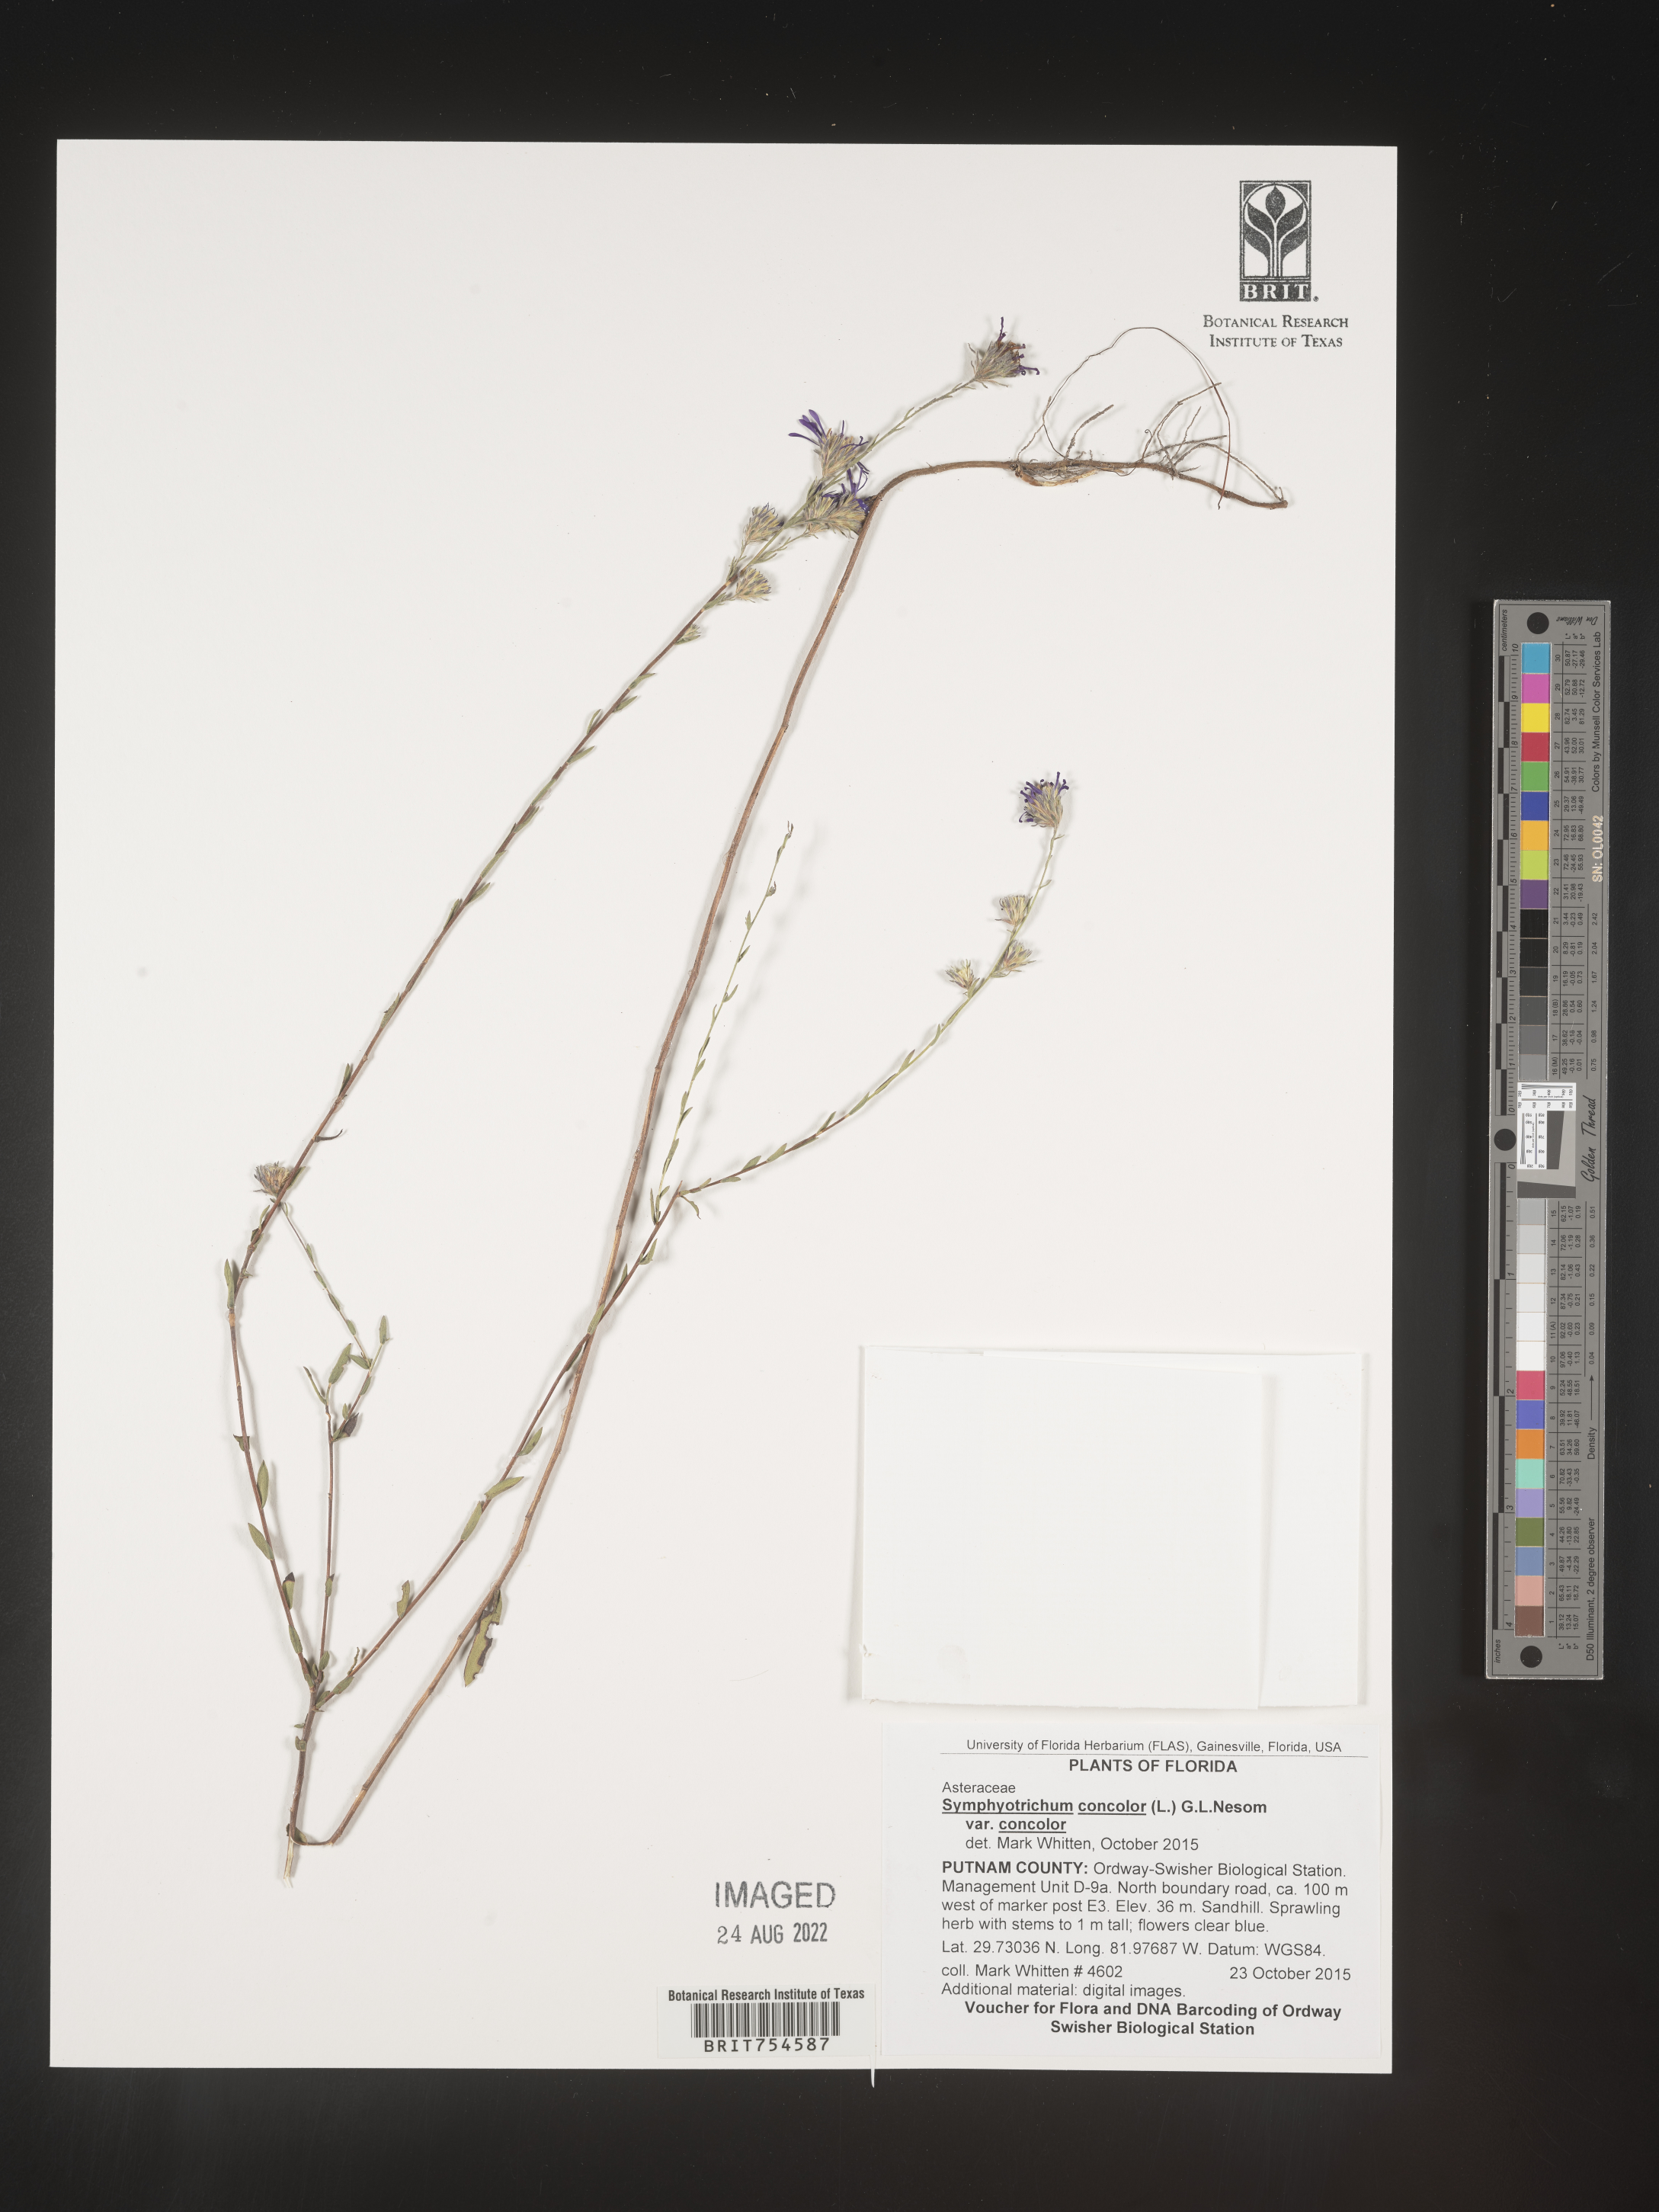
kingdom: Plantae
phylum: Tracheophyta
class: Magnoliopsida
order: Asterales
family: Asteraceae
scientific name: Asteraceae
